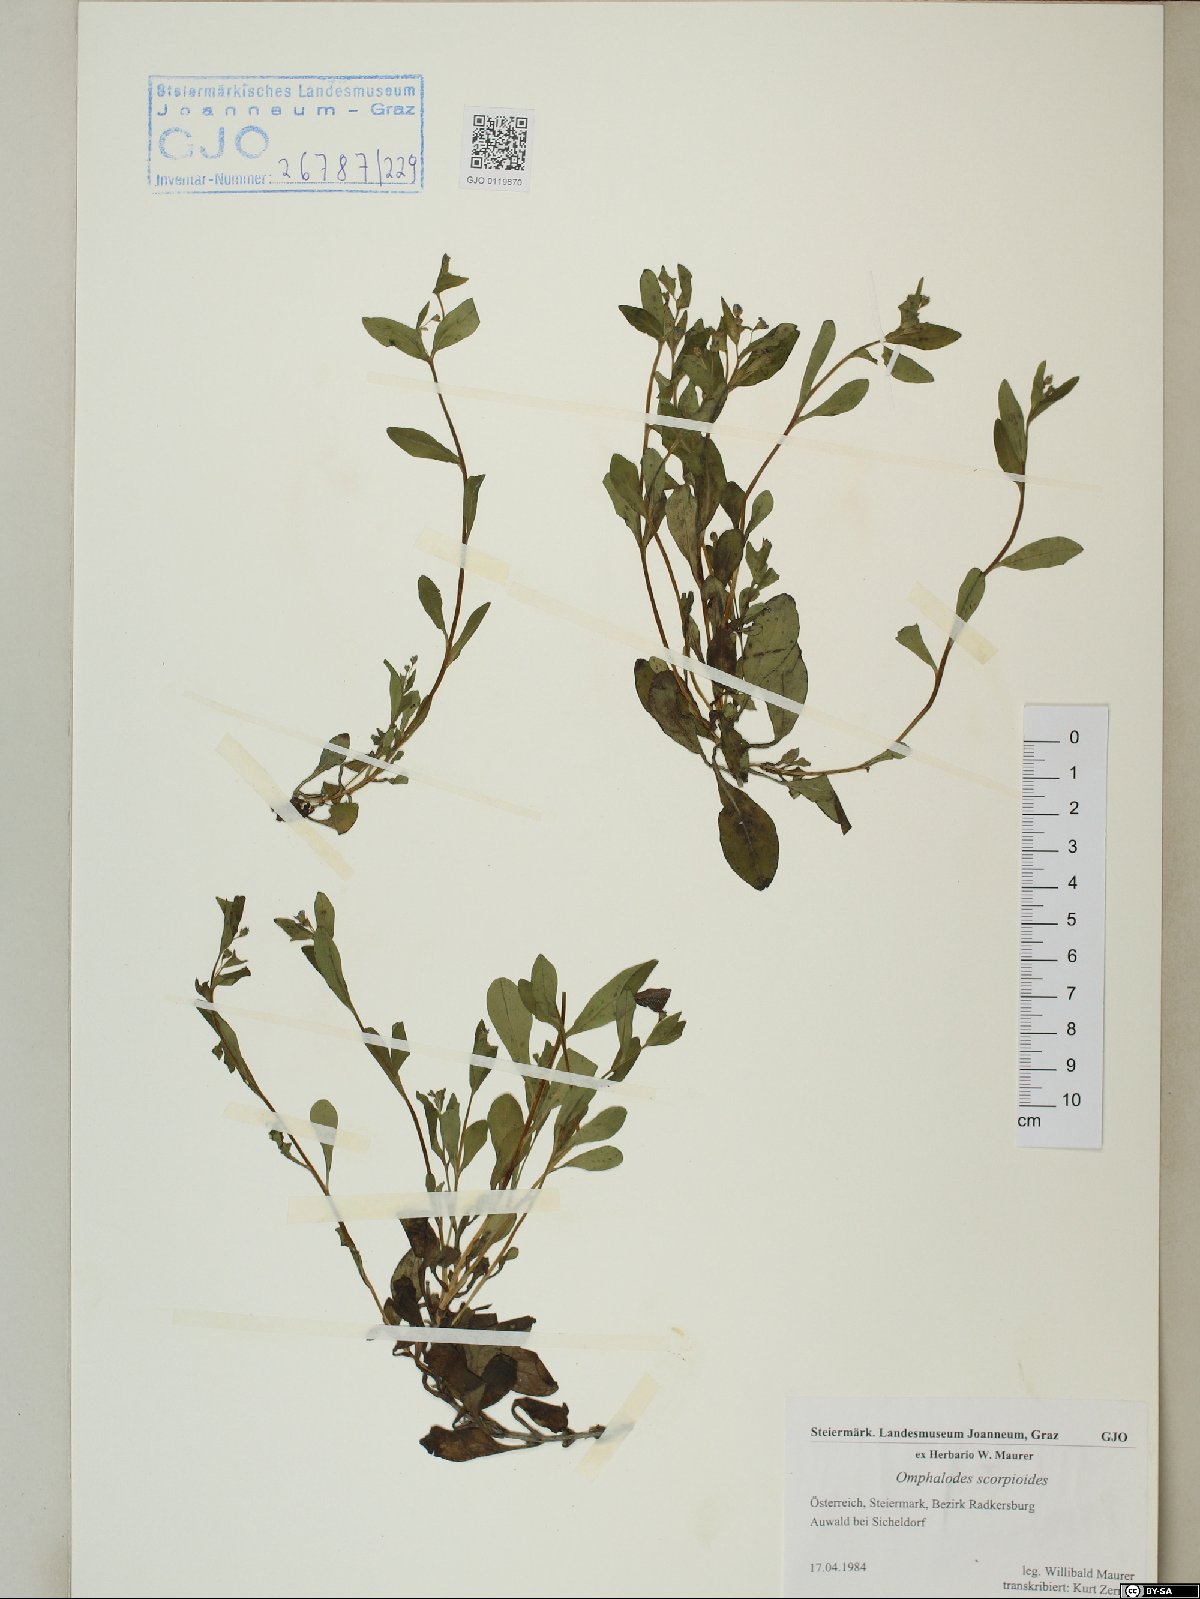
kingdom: Plantae
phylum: Tracheophyta
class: Magnoliopsida
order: Boraginales
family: Boraginaceae
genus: Memoremea
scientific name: Memoremea scorpioides
